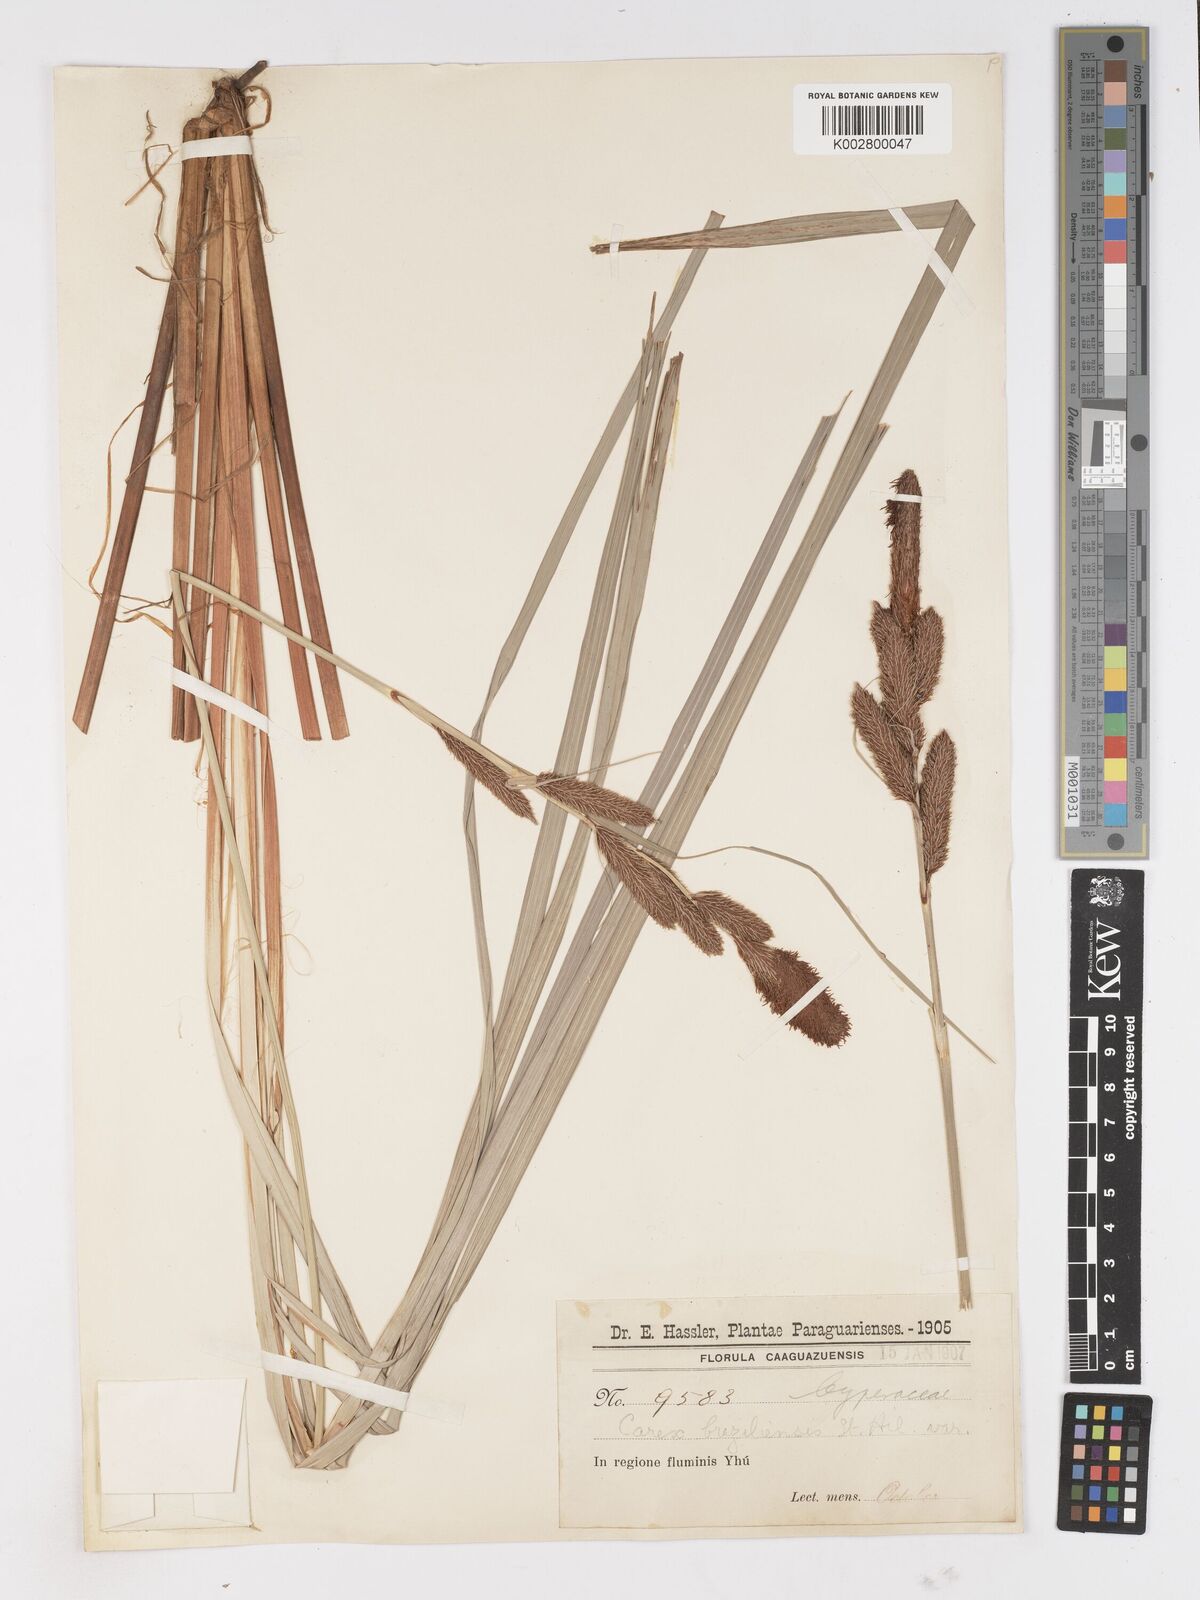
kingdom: Plantae
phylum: Tracheophyta
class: Liliopsida
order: Poales
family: Cyperaceae
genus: Carex
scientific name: Carex brasiliensis
